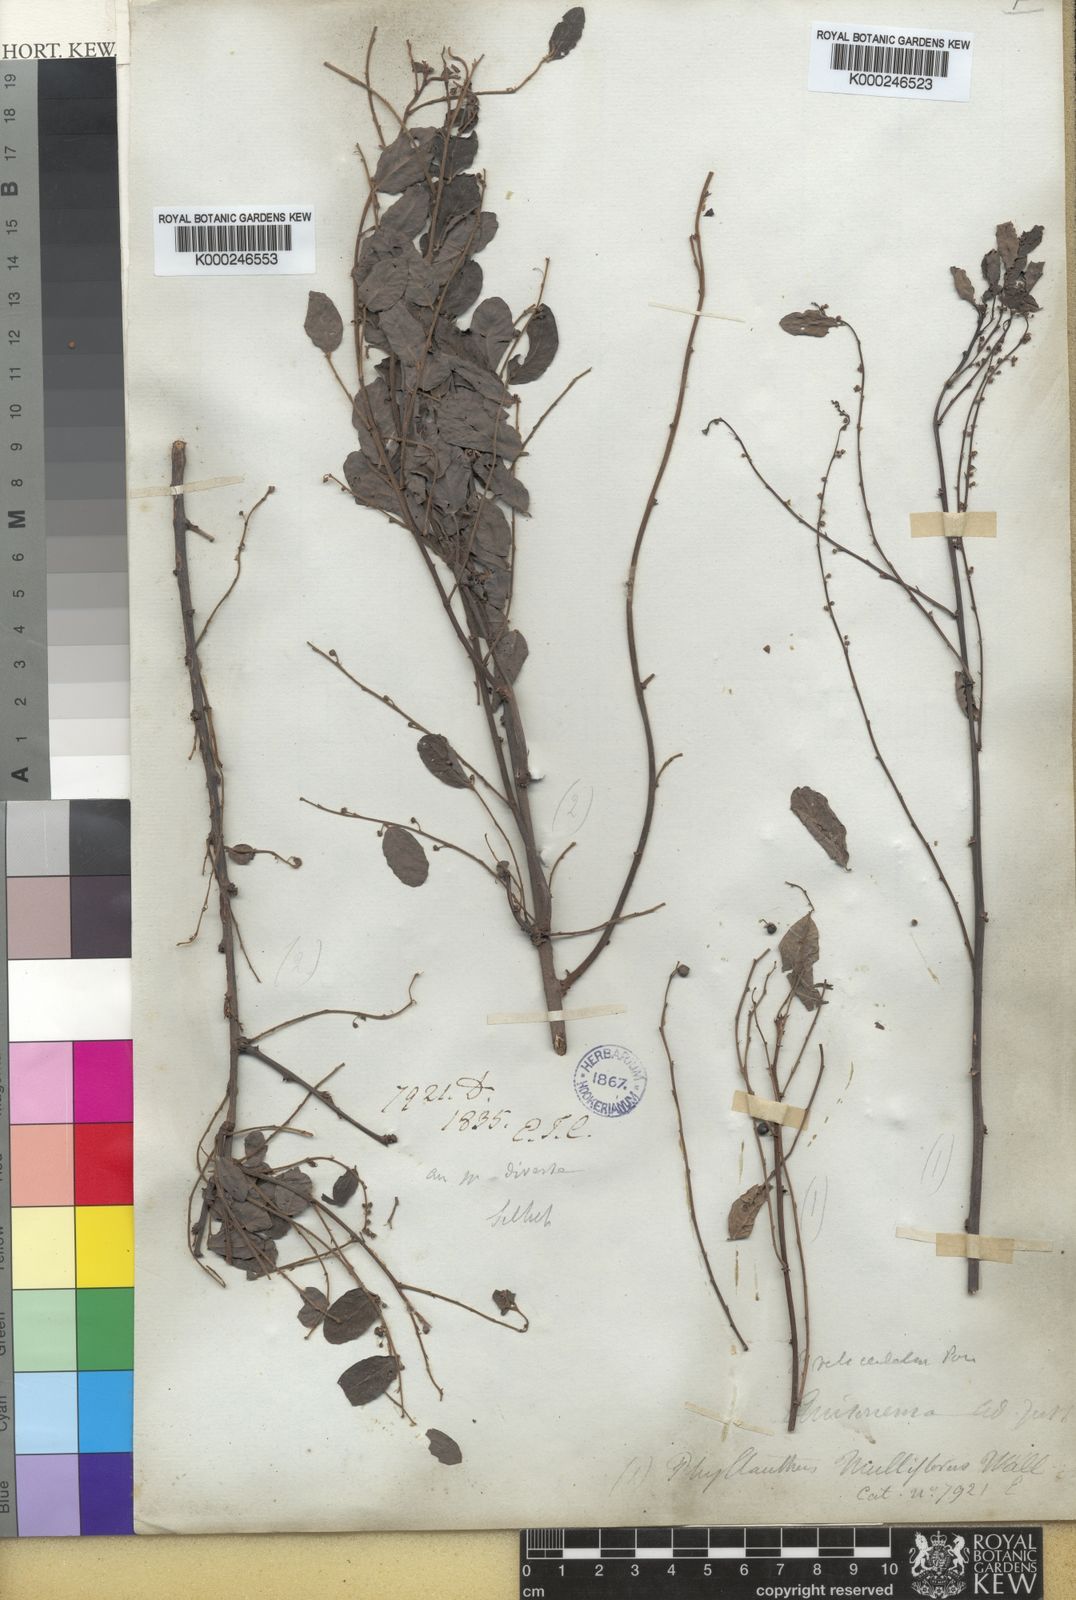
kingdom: Plantae
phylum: Tracheophyta
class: Magnoliopsida
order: Malpighiales
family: Phyllanthaceae
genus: Phyllanthus
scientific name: Phyllanthus reticulatus
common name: Potato bush
